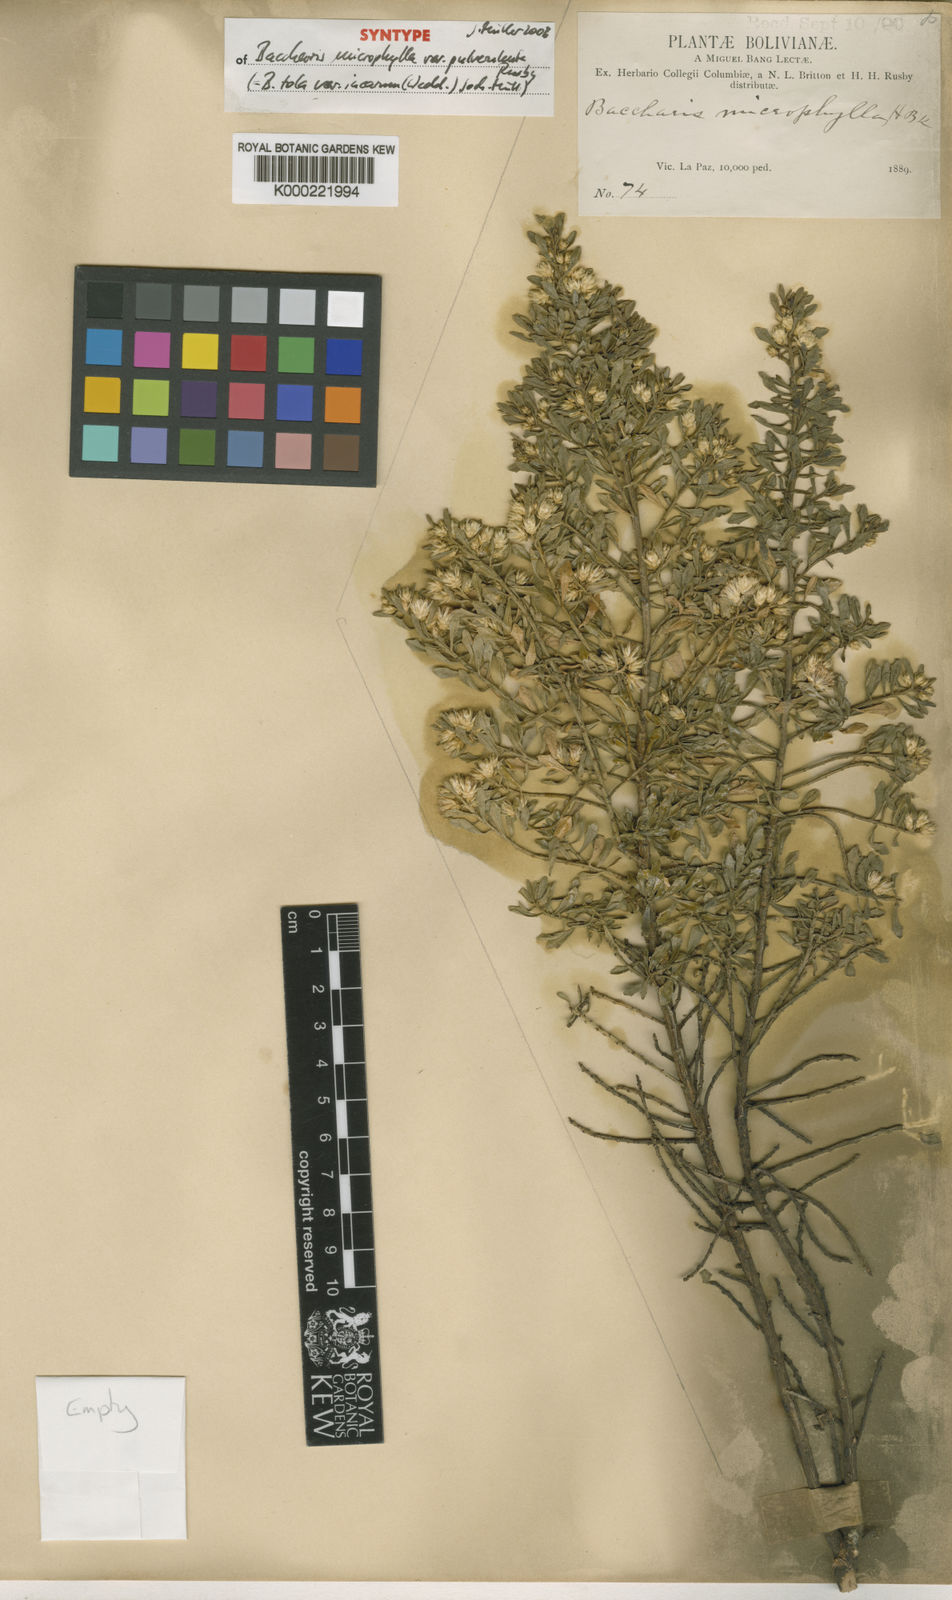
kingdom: Plantae
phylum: Tracheophyta
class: Magnoliopsida
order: Asterales
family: Asteraceae
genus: Baccharis
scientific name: Baccharis tola
